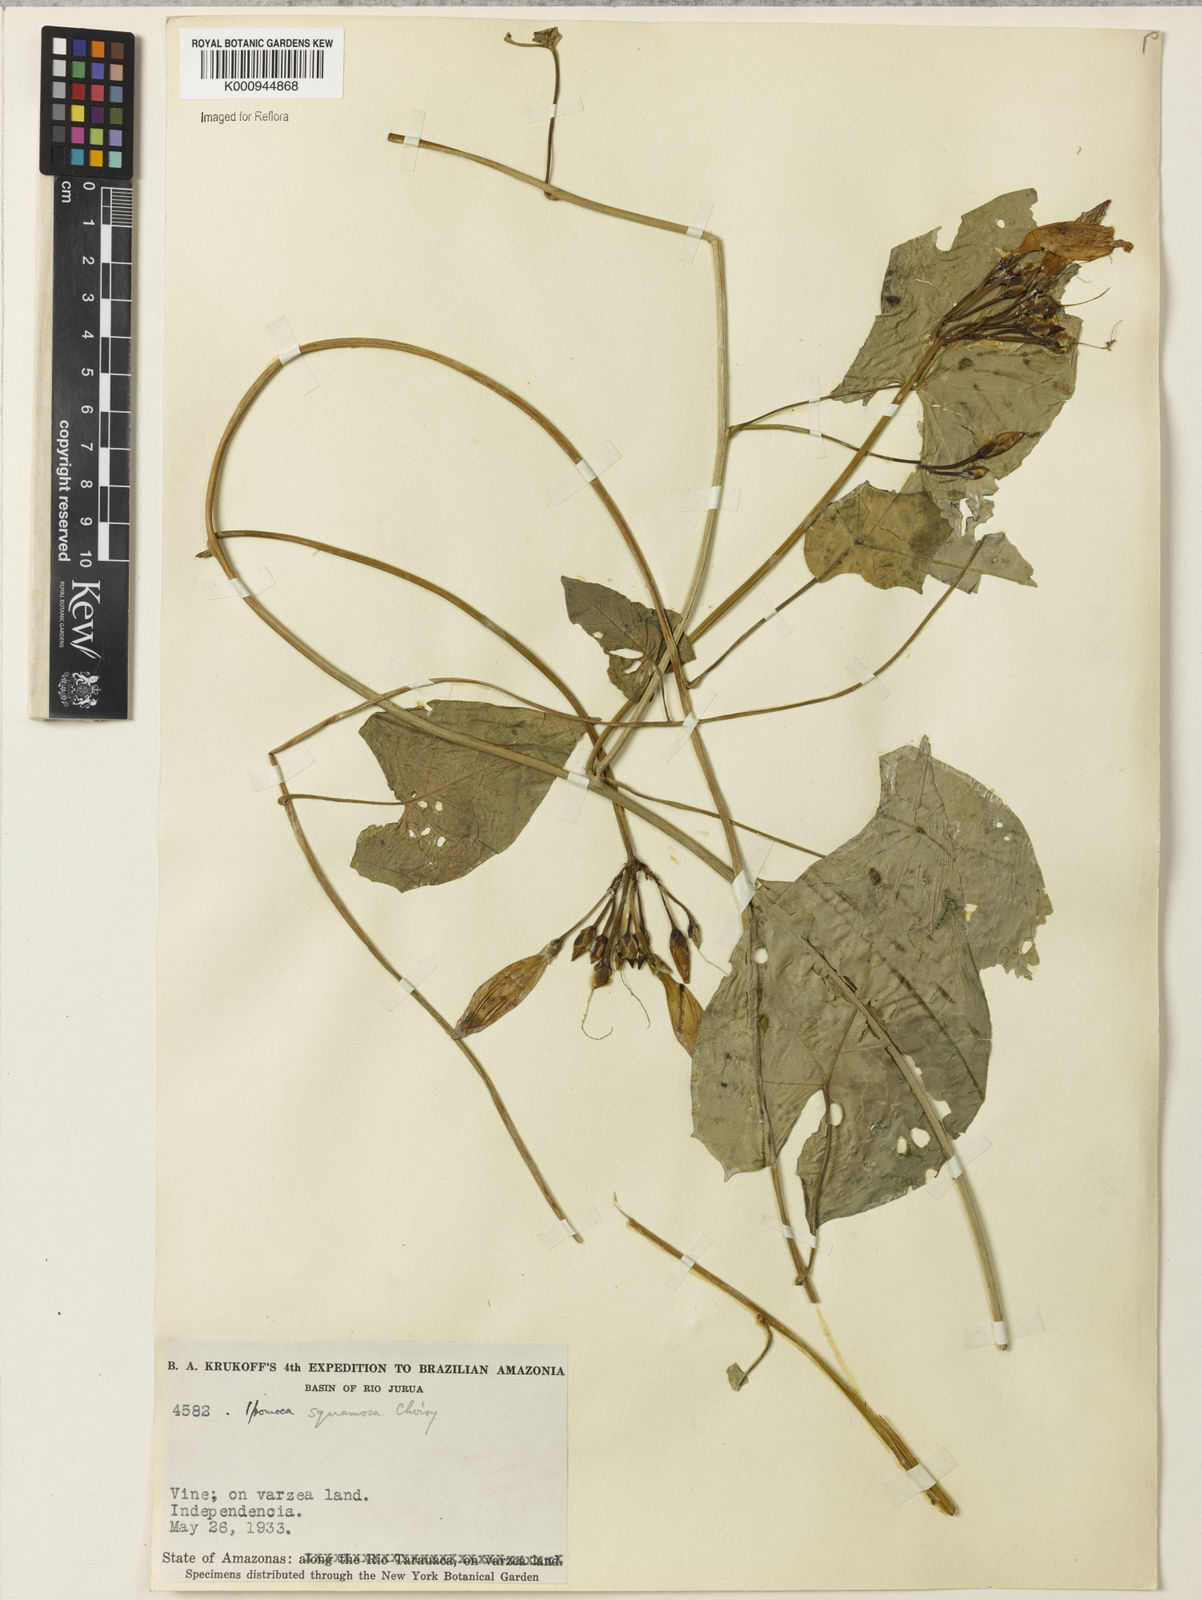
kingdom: Plantae
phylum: Tracheophyta
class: Magnoliopsida
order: Solanales
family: Convolvulaceae
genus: Ipomoea
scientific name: Ipomoea squamosa
